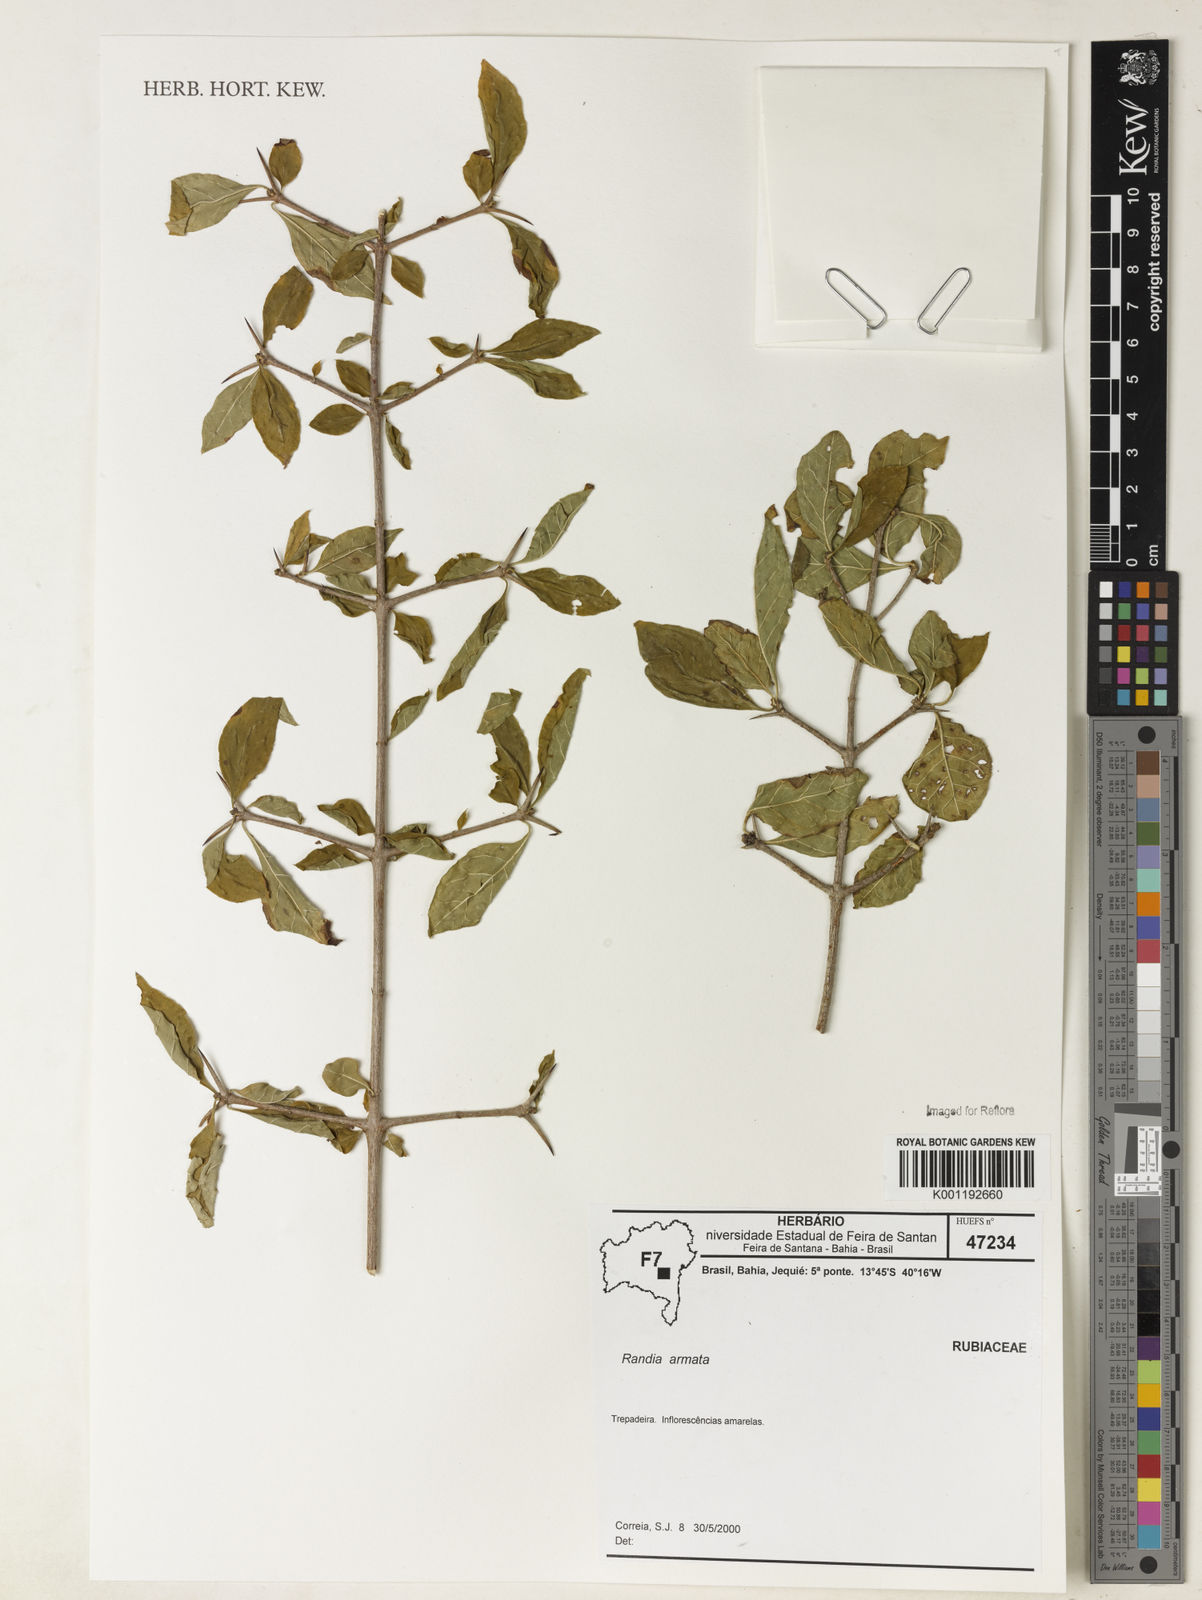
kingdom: Plantae
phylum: Tracheophyta
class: Magnoliopsida
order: Gentianales
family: Rubiaceae
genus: Randia
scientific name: Randia armata
